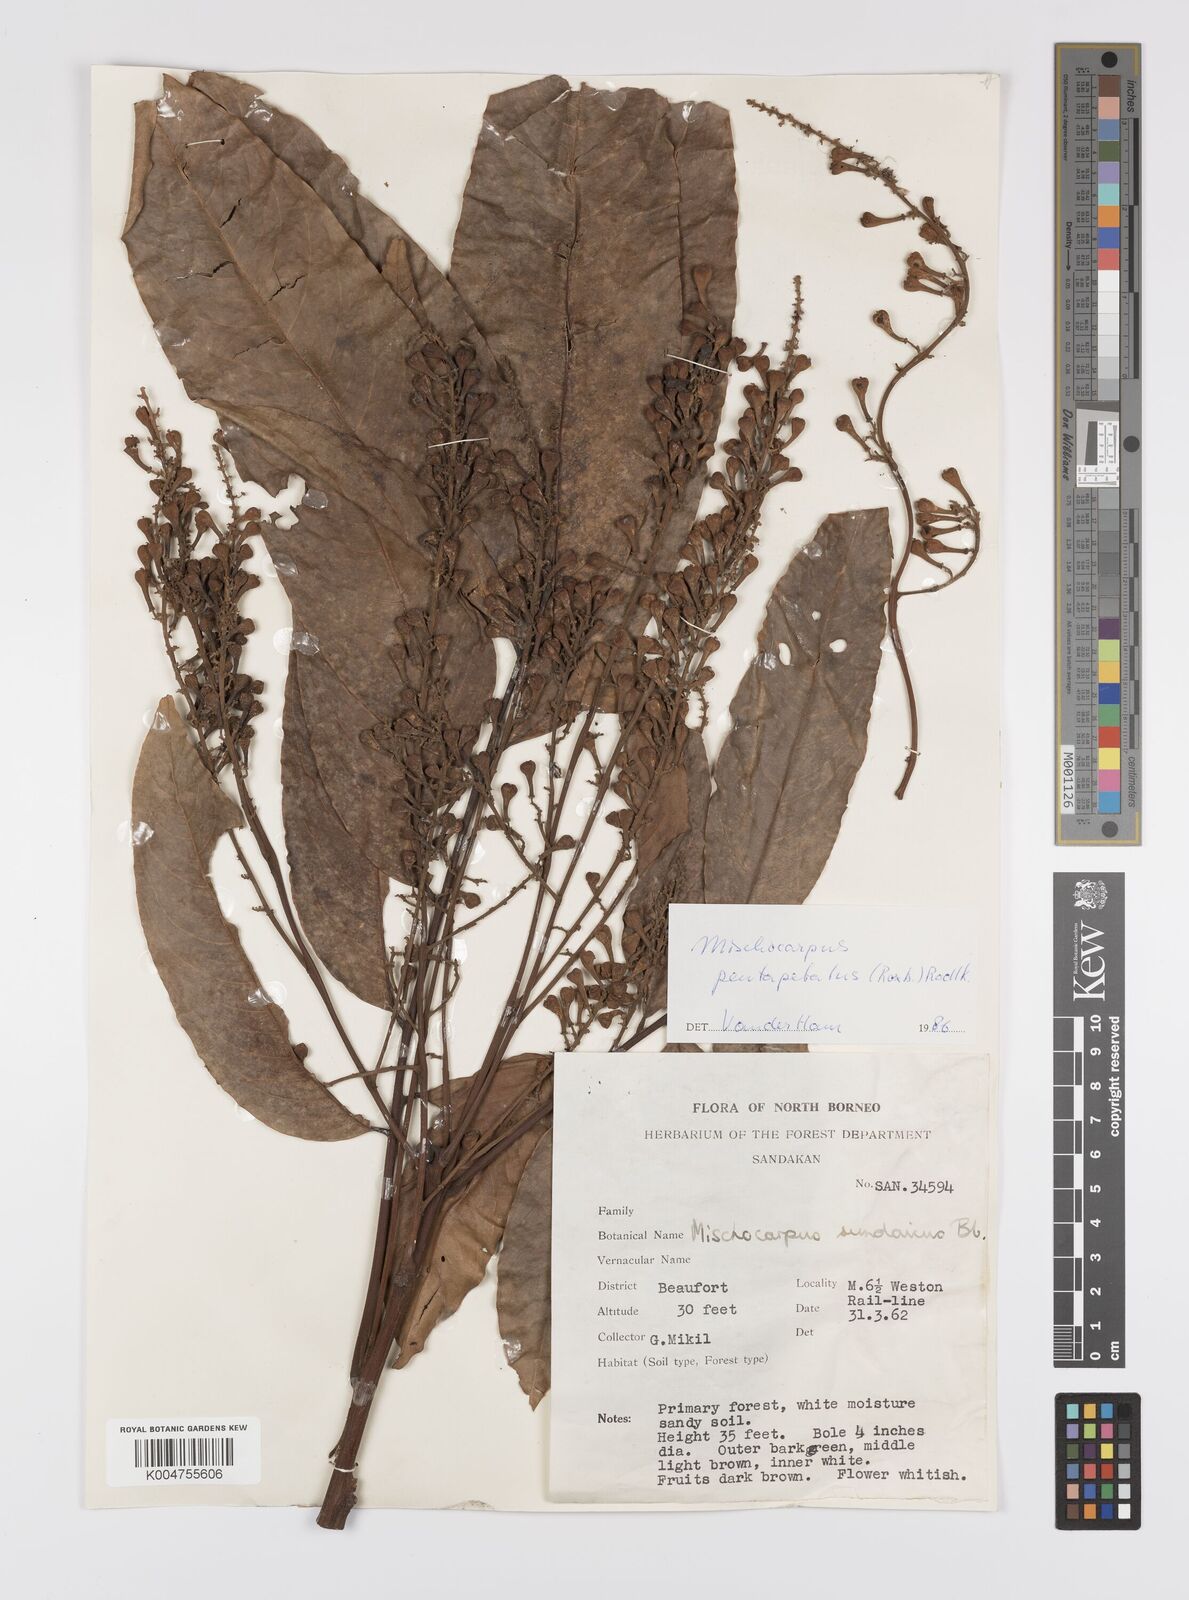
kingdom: Plantae
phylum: Tracheophyta
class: Magnoliopsida
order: Sapindales
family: Sapindaceae
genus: Mischocarpus
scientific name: Mischocarpus pentapetalus
